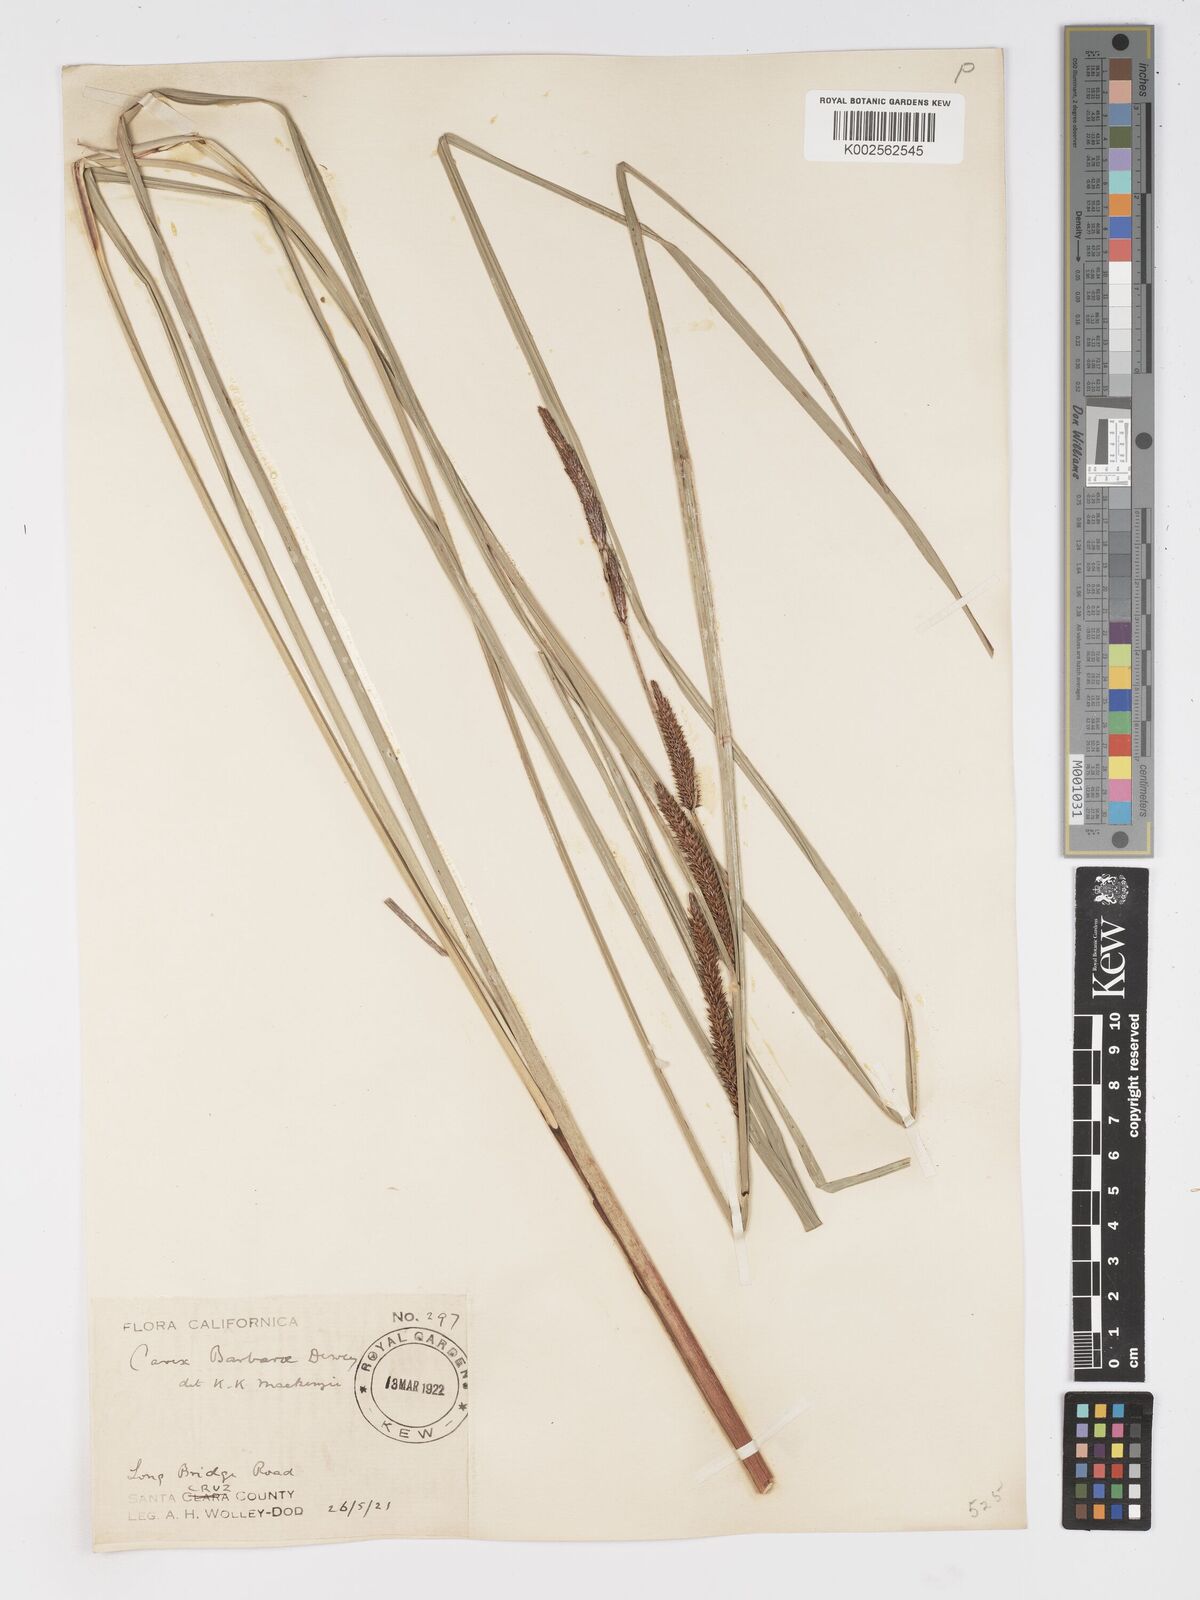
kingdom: Plantae
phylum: Tracheophyta
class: Liliopsida
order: Poales
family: Cyperaceae
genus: Carex
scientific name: Carex schottii
